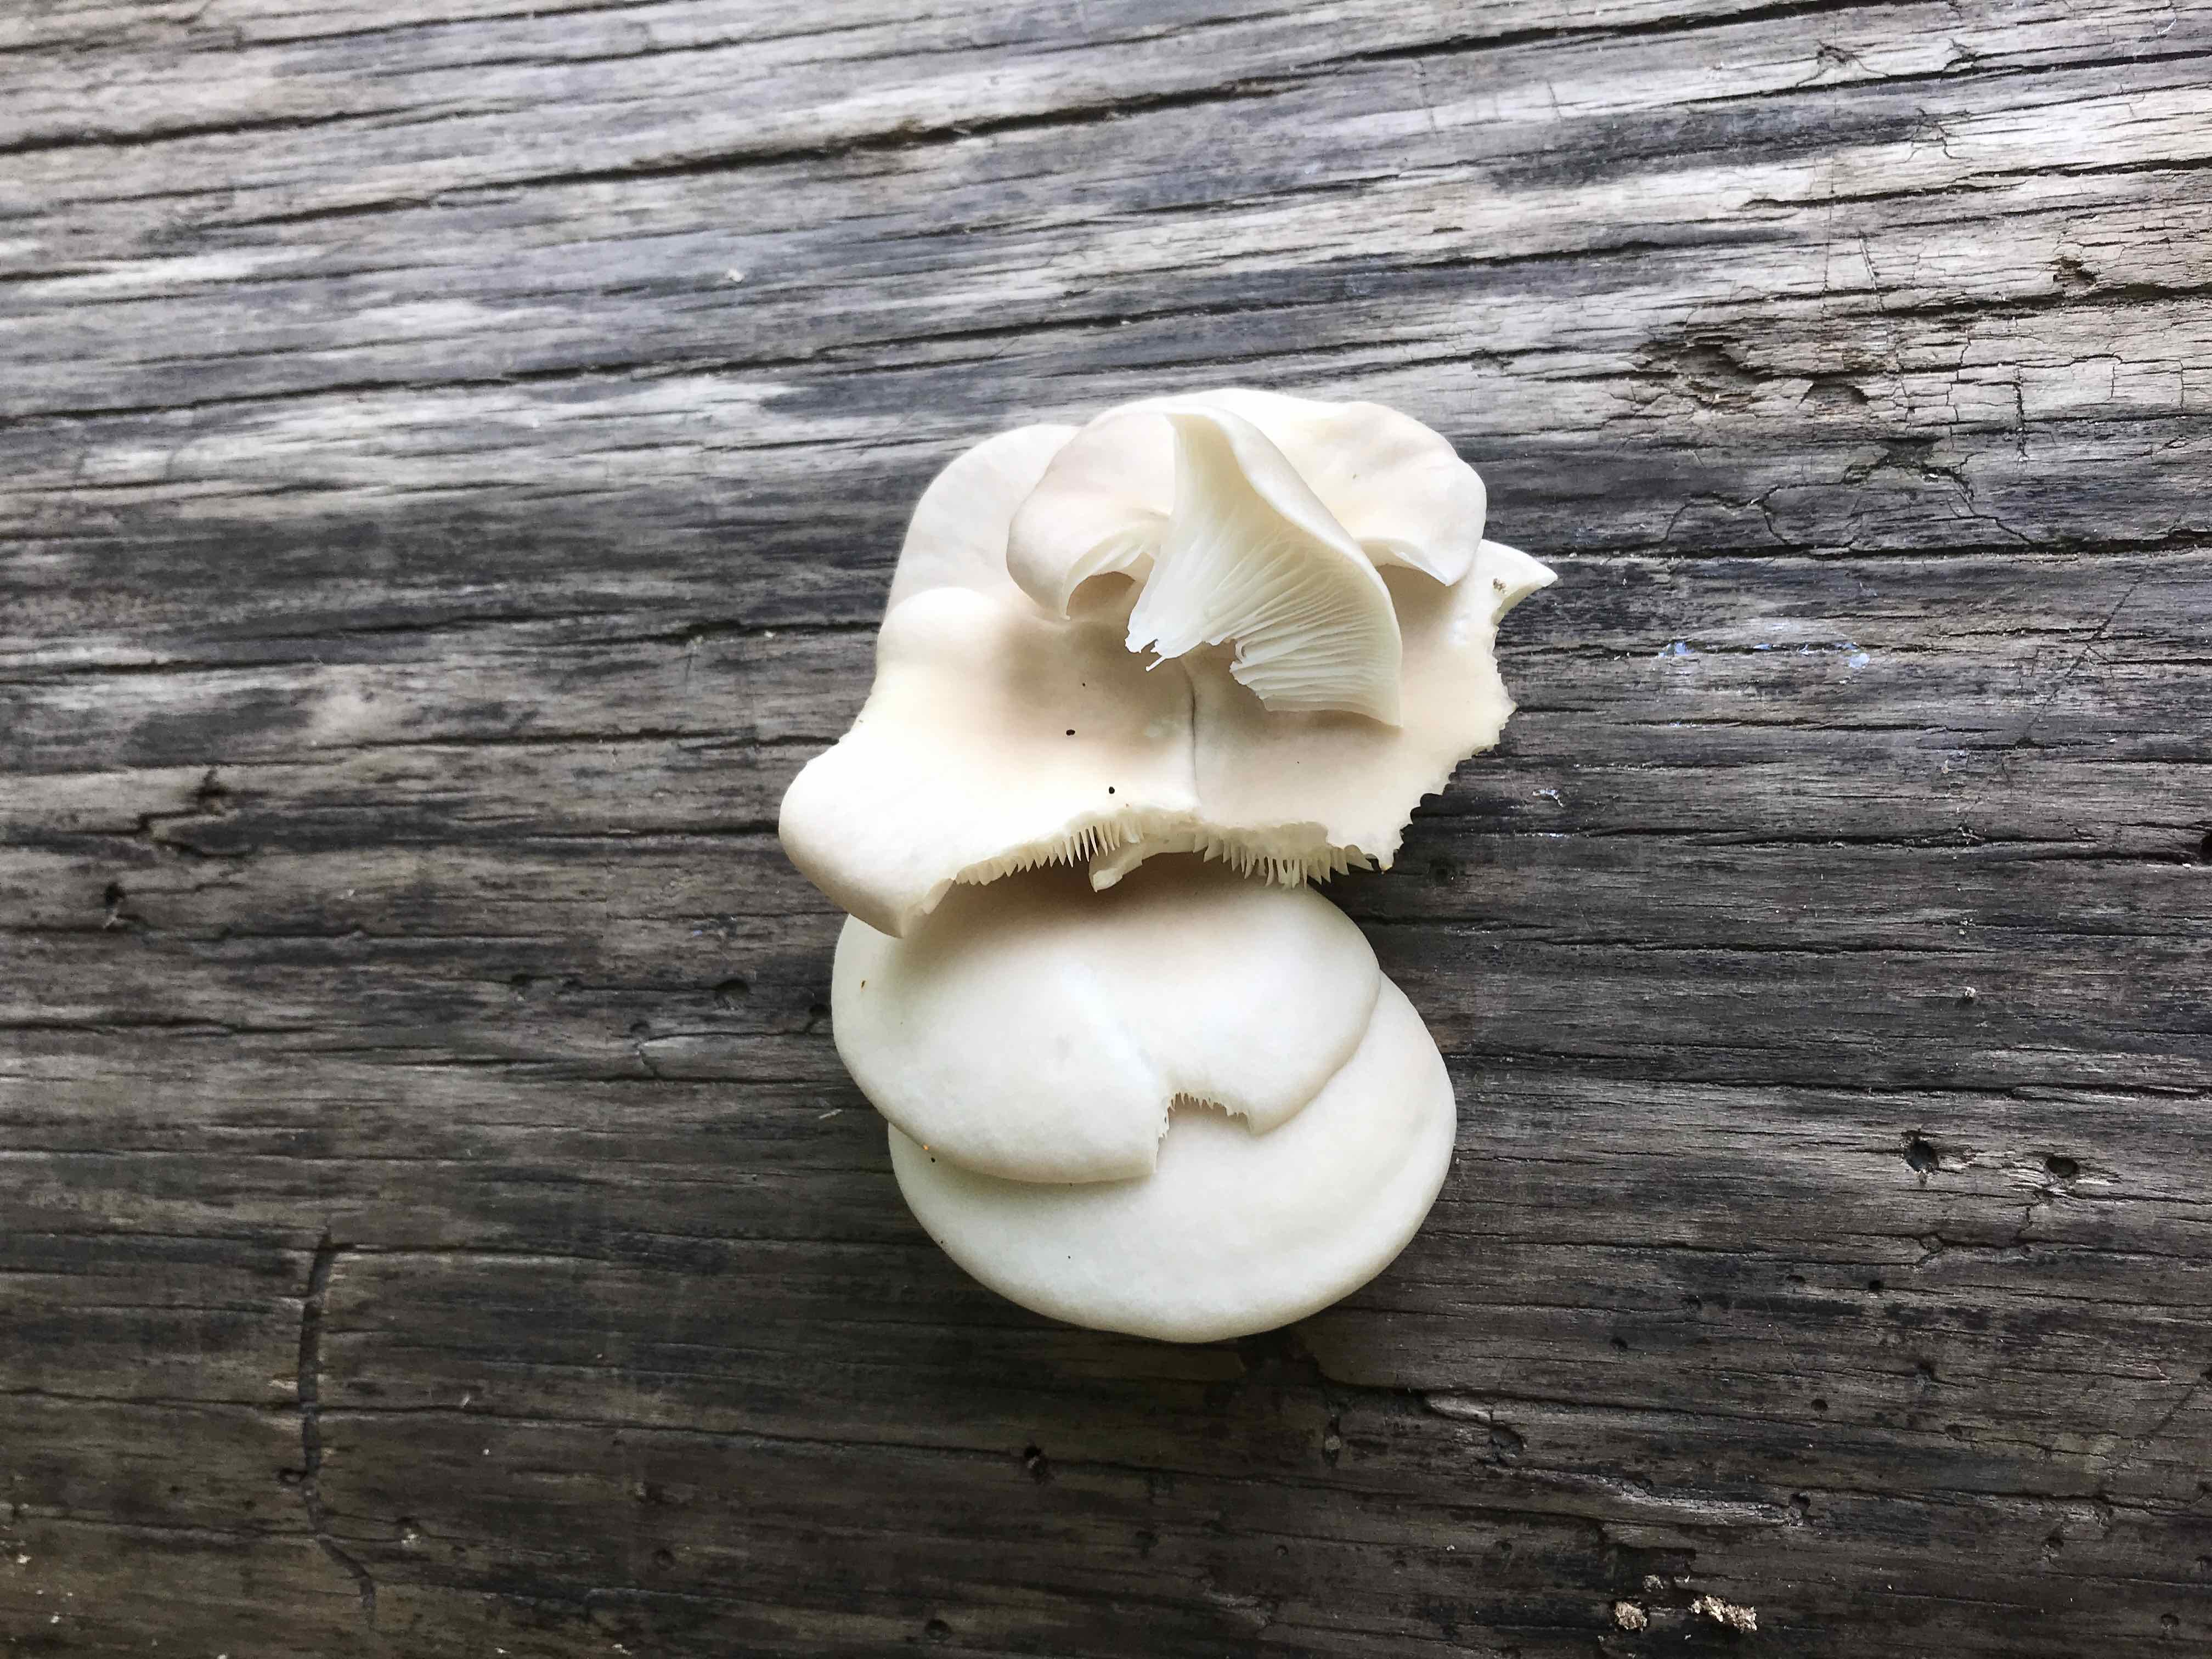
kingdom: Fungi
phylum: Basidiomycota
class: Agaricomycetes
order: Agaricales
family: Pleurotaceae
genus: Pleurotus
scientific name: Pleurotus pulmonarius
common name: sommer-østershat
